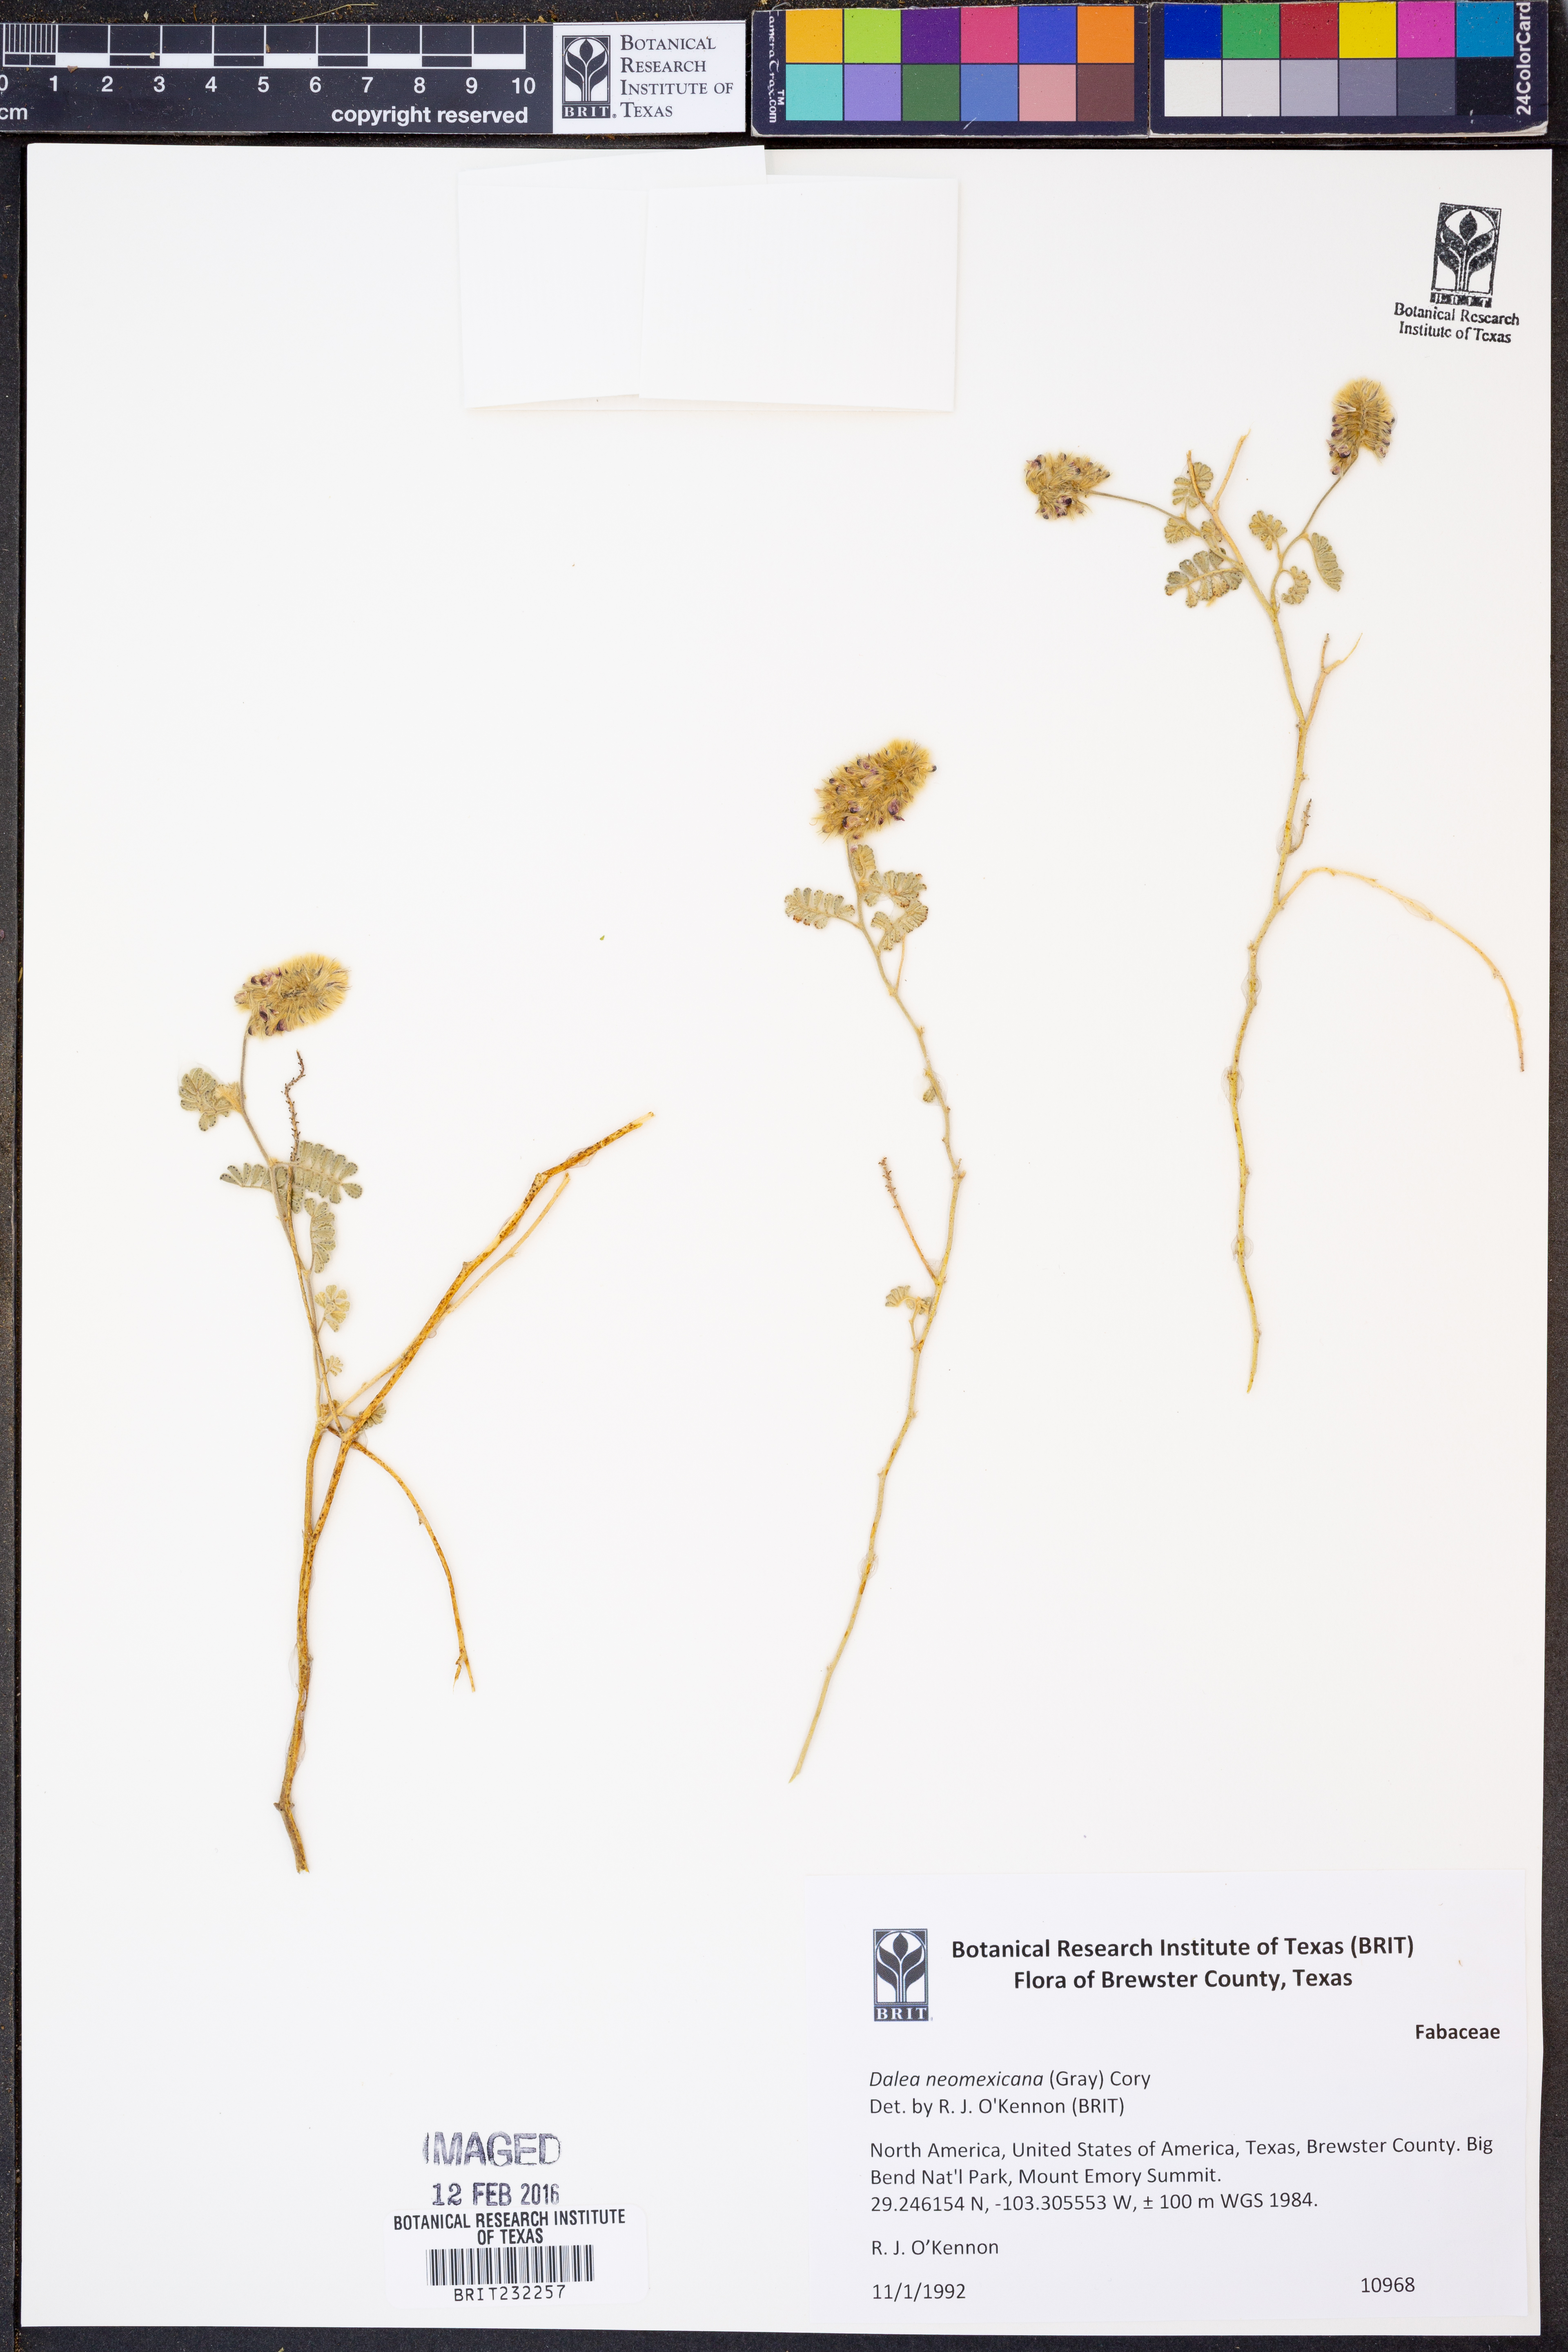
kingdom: Plantae
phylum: Tracheophyta
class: Magnoliopsida
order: Fabales
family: Fabaceae
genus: Dalea
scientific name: Dalea neomexicana
